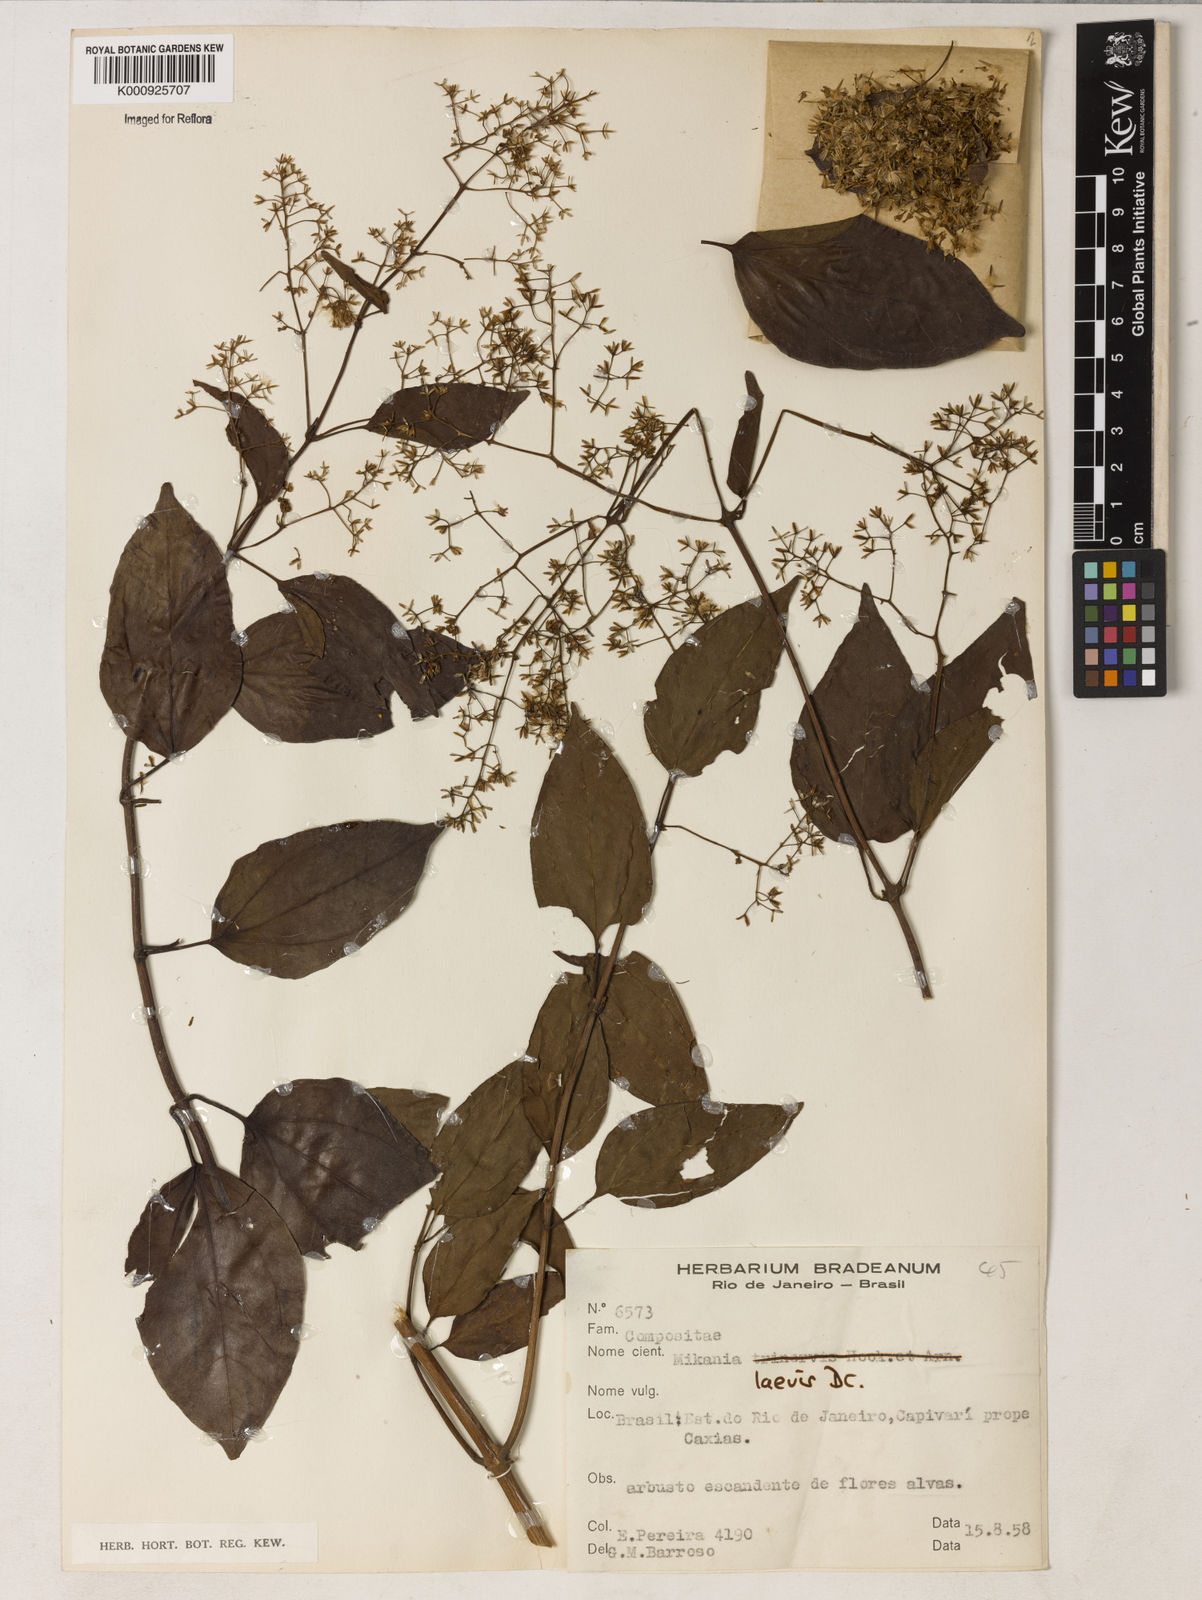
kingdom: Plantae
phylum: Tracheophyta
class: Magnoliopsida
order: Asterales
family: Asteraceae
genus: Mikania
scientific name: Mikania trinervis
